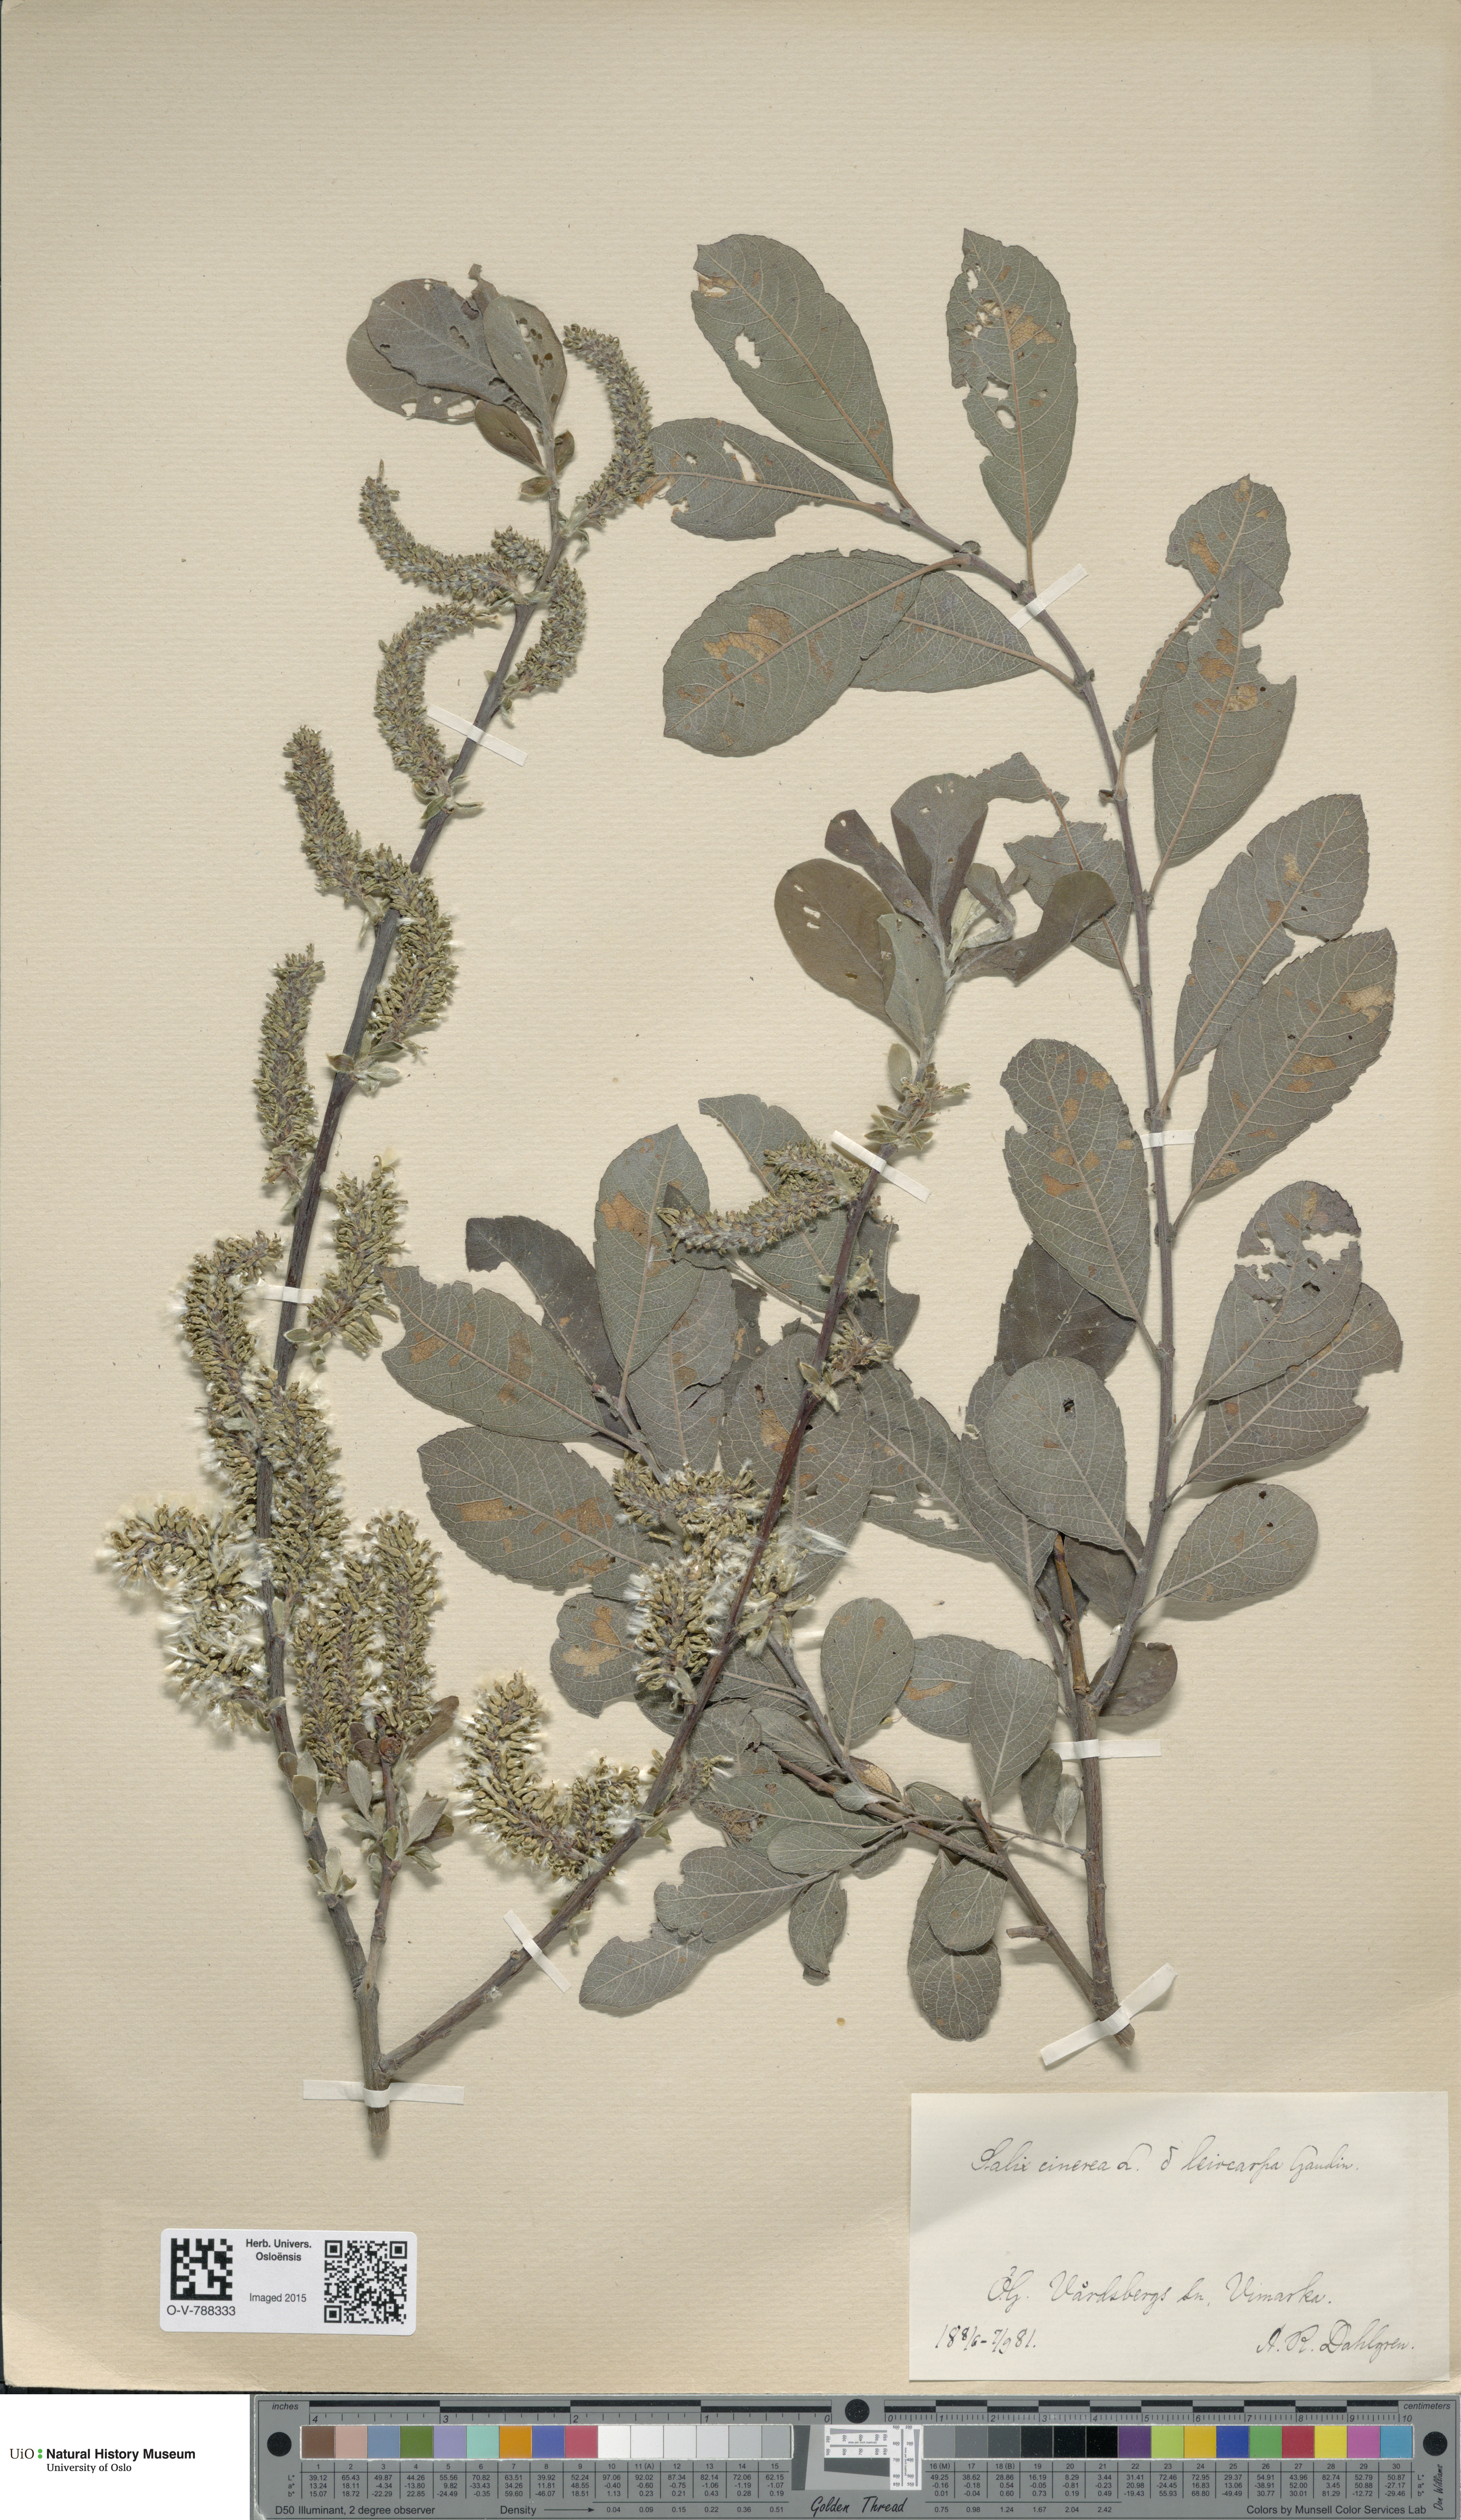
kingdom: Plantae
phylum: Tracheophyta
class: Magnoliopsida
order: Malpighiales
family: Salicaceae
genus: Salix
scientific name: Salix cinerea
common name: Common sallow
